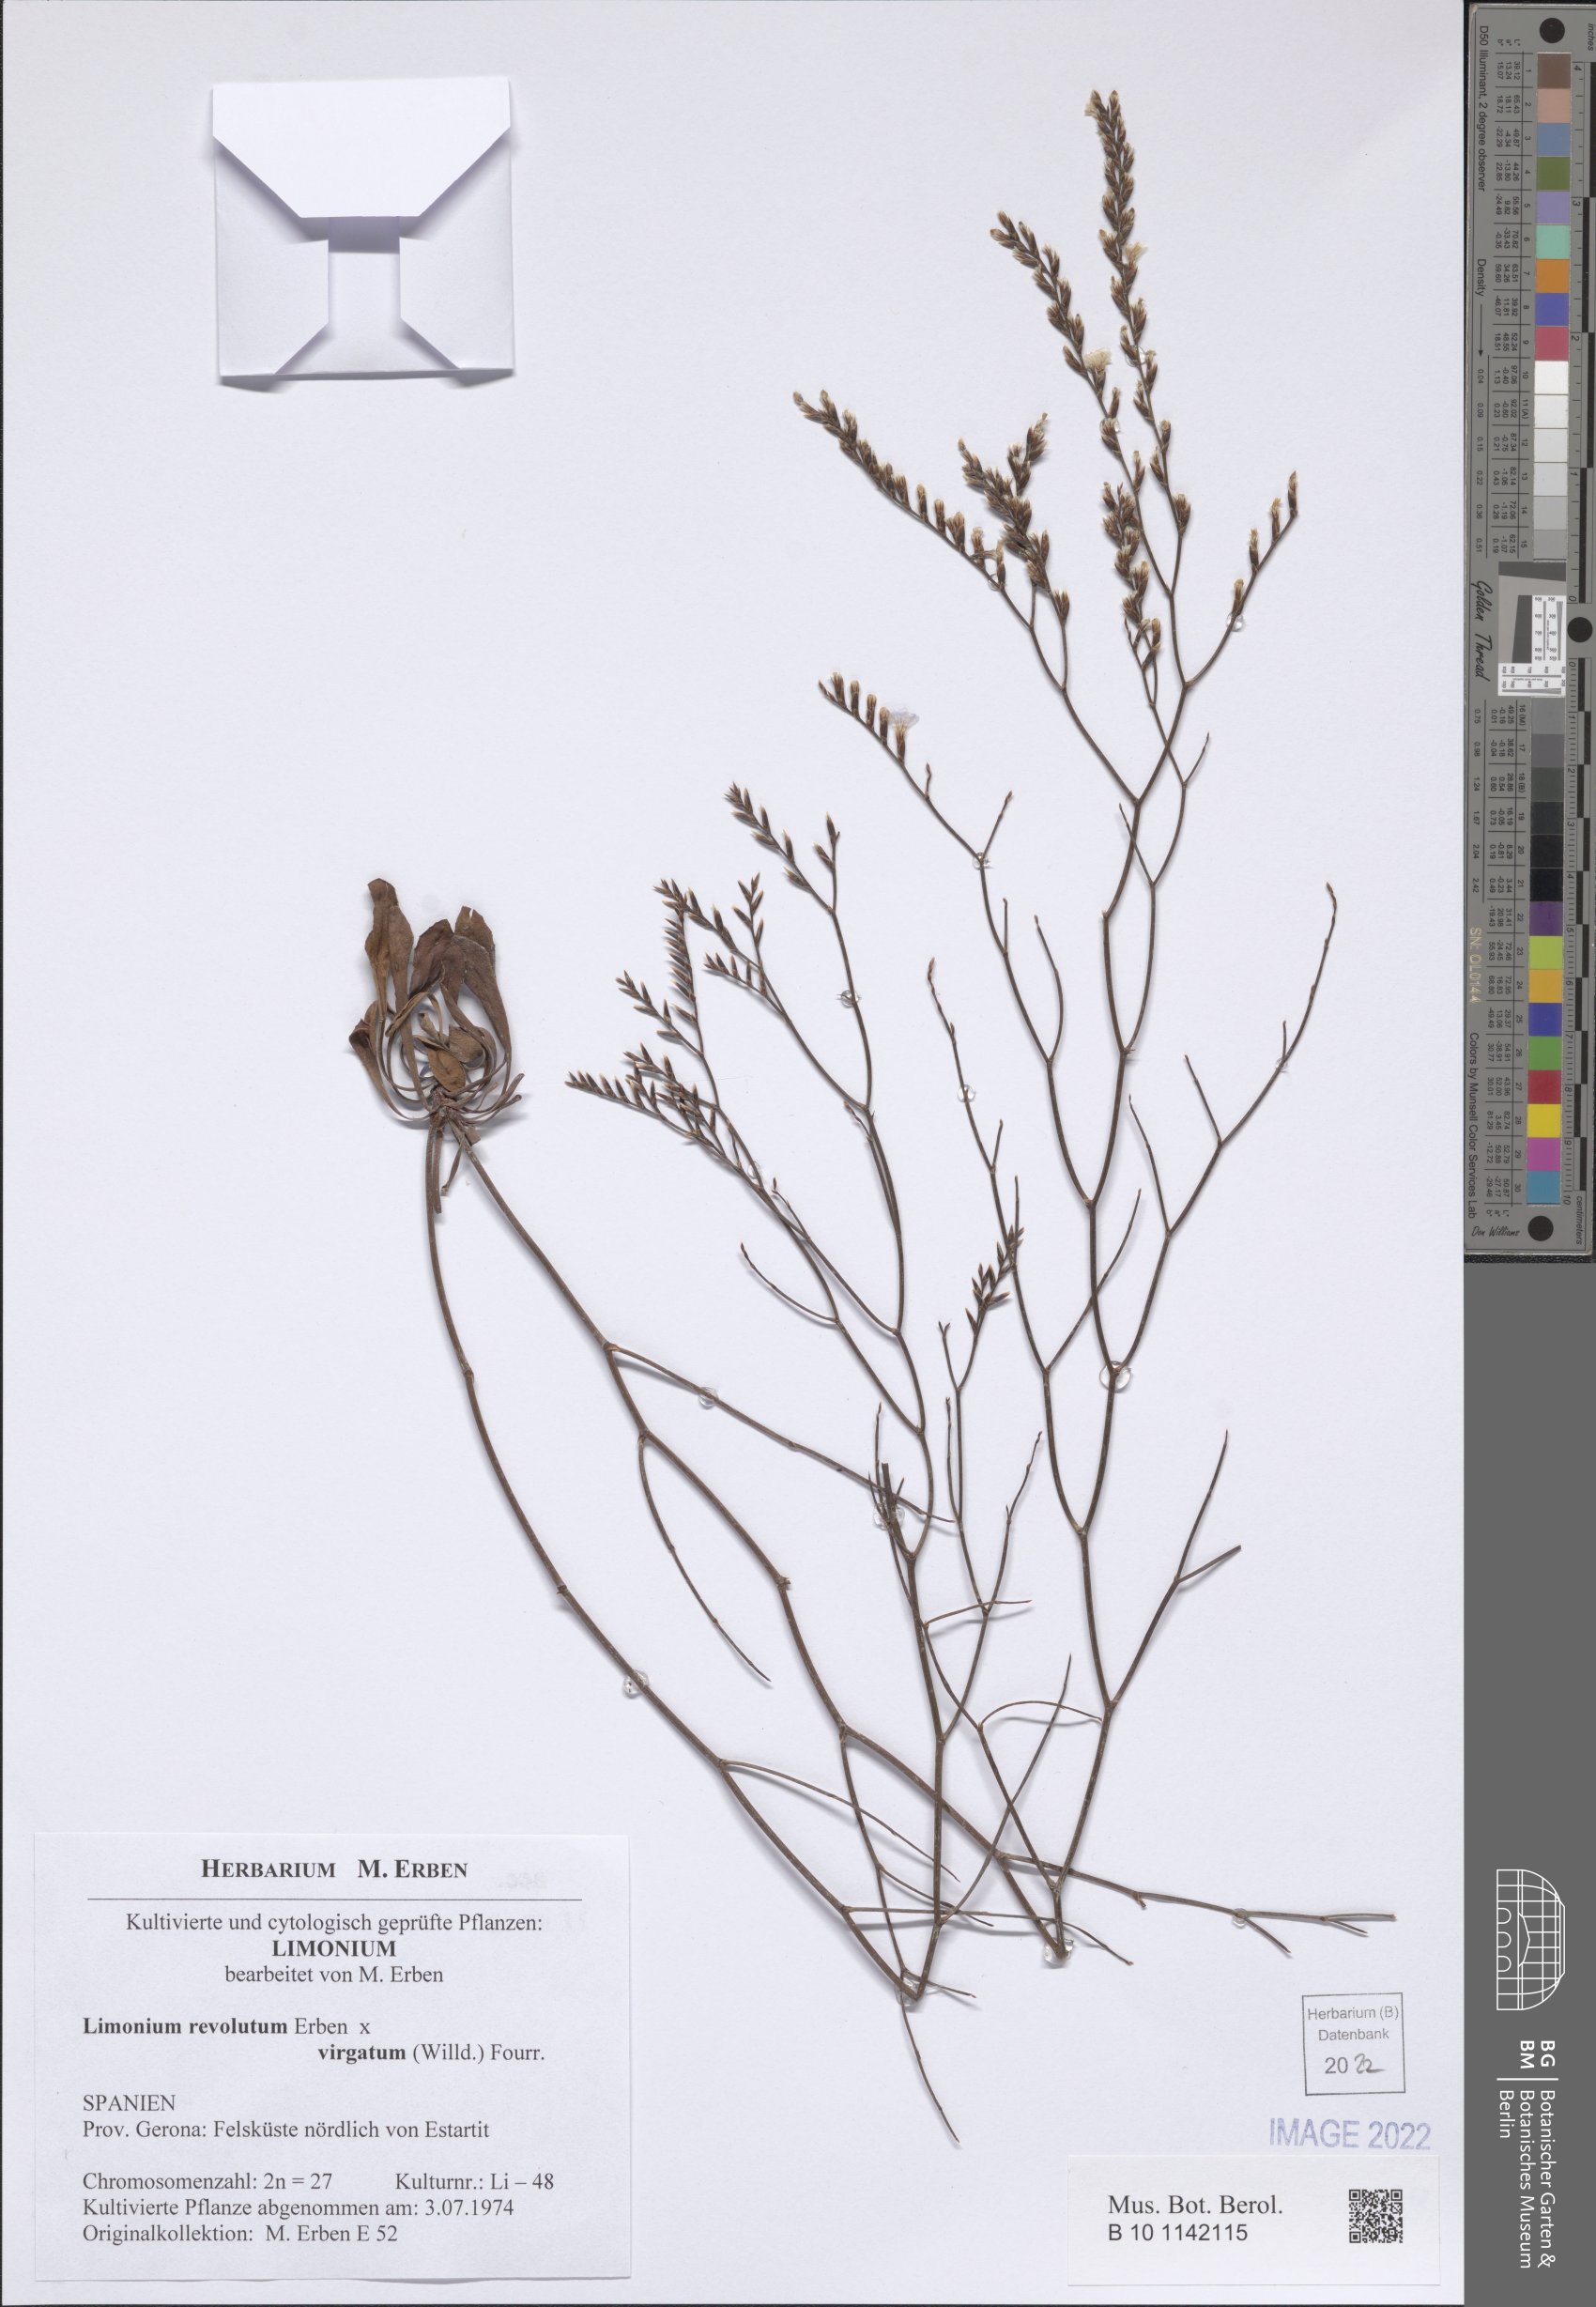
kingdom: Plantae
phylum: Tracheophyta
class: Magnoliopsida
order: Caryophyllales
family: Plumbaginaceae
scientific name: Plumbaginaceae
